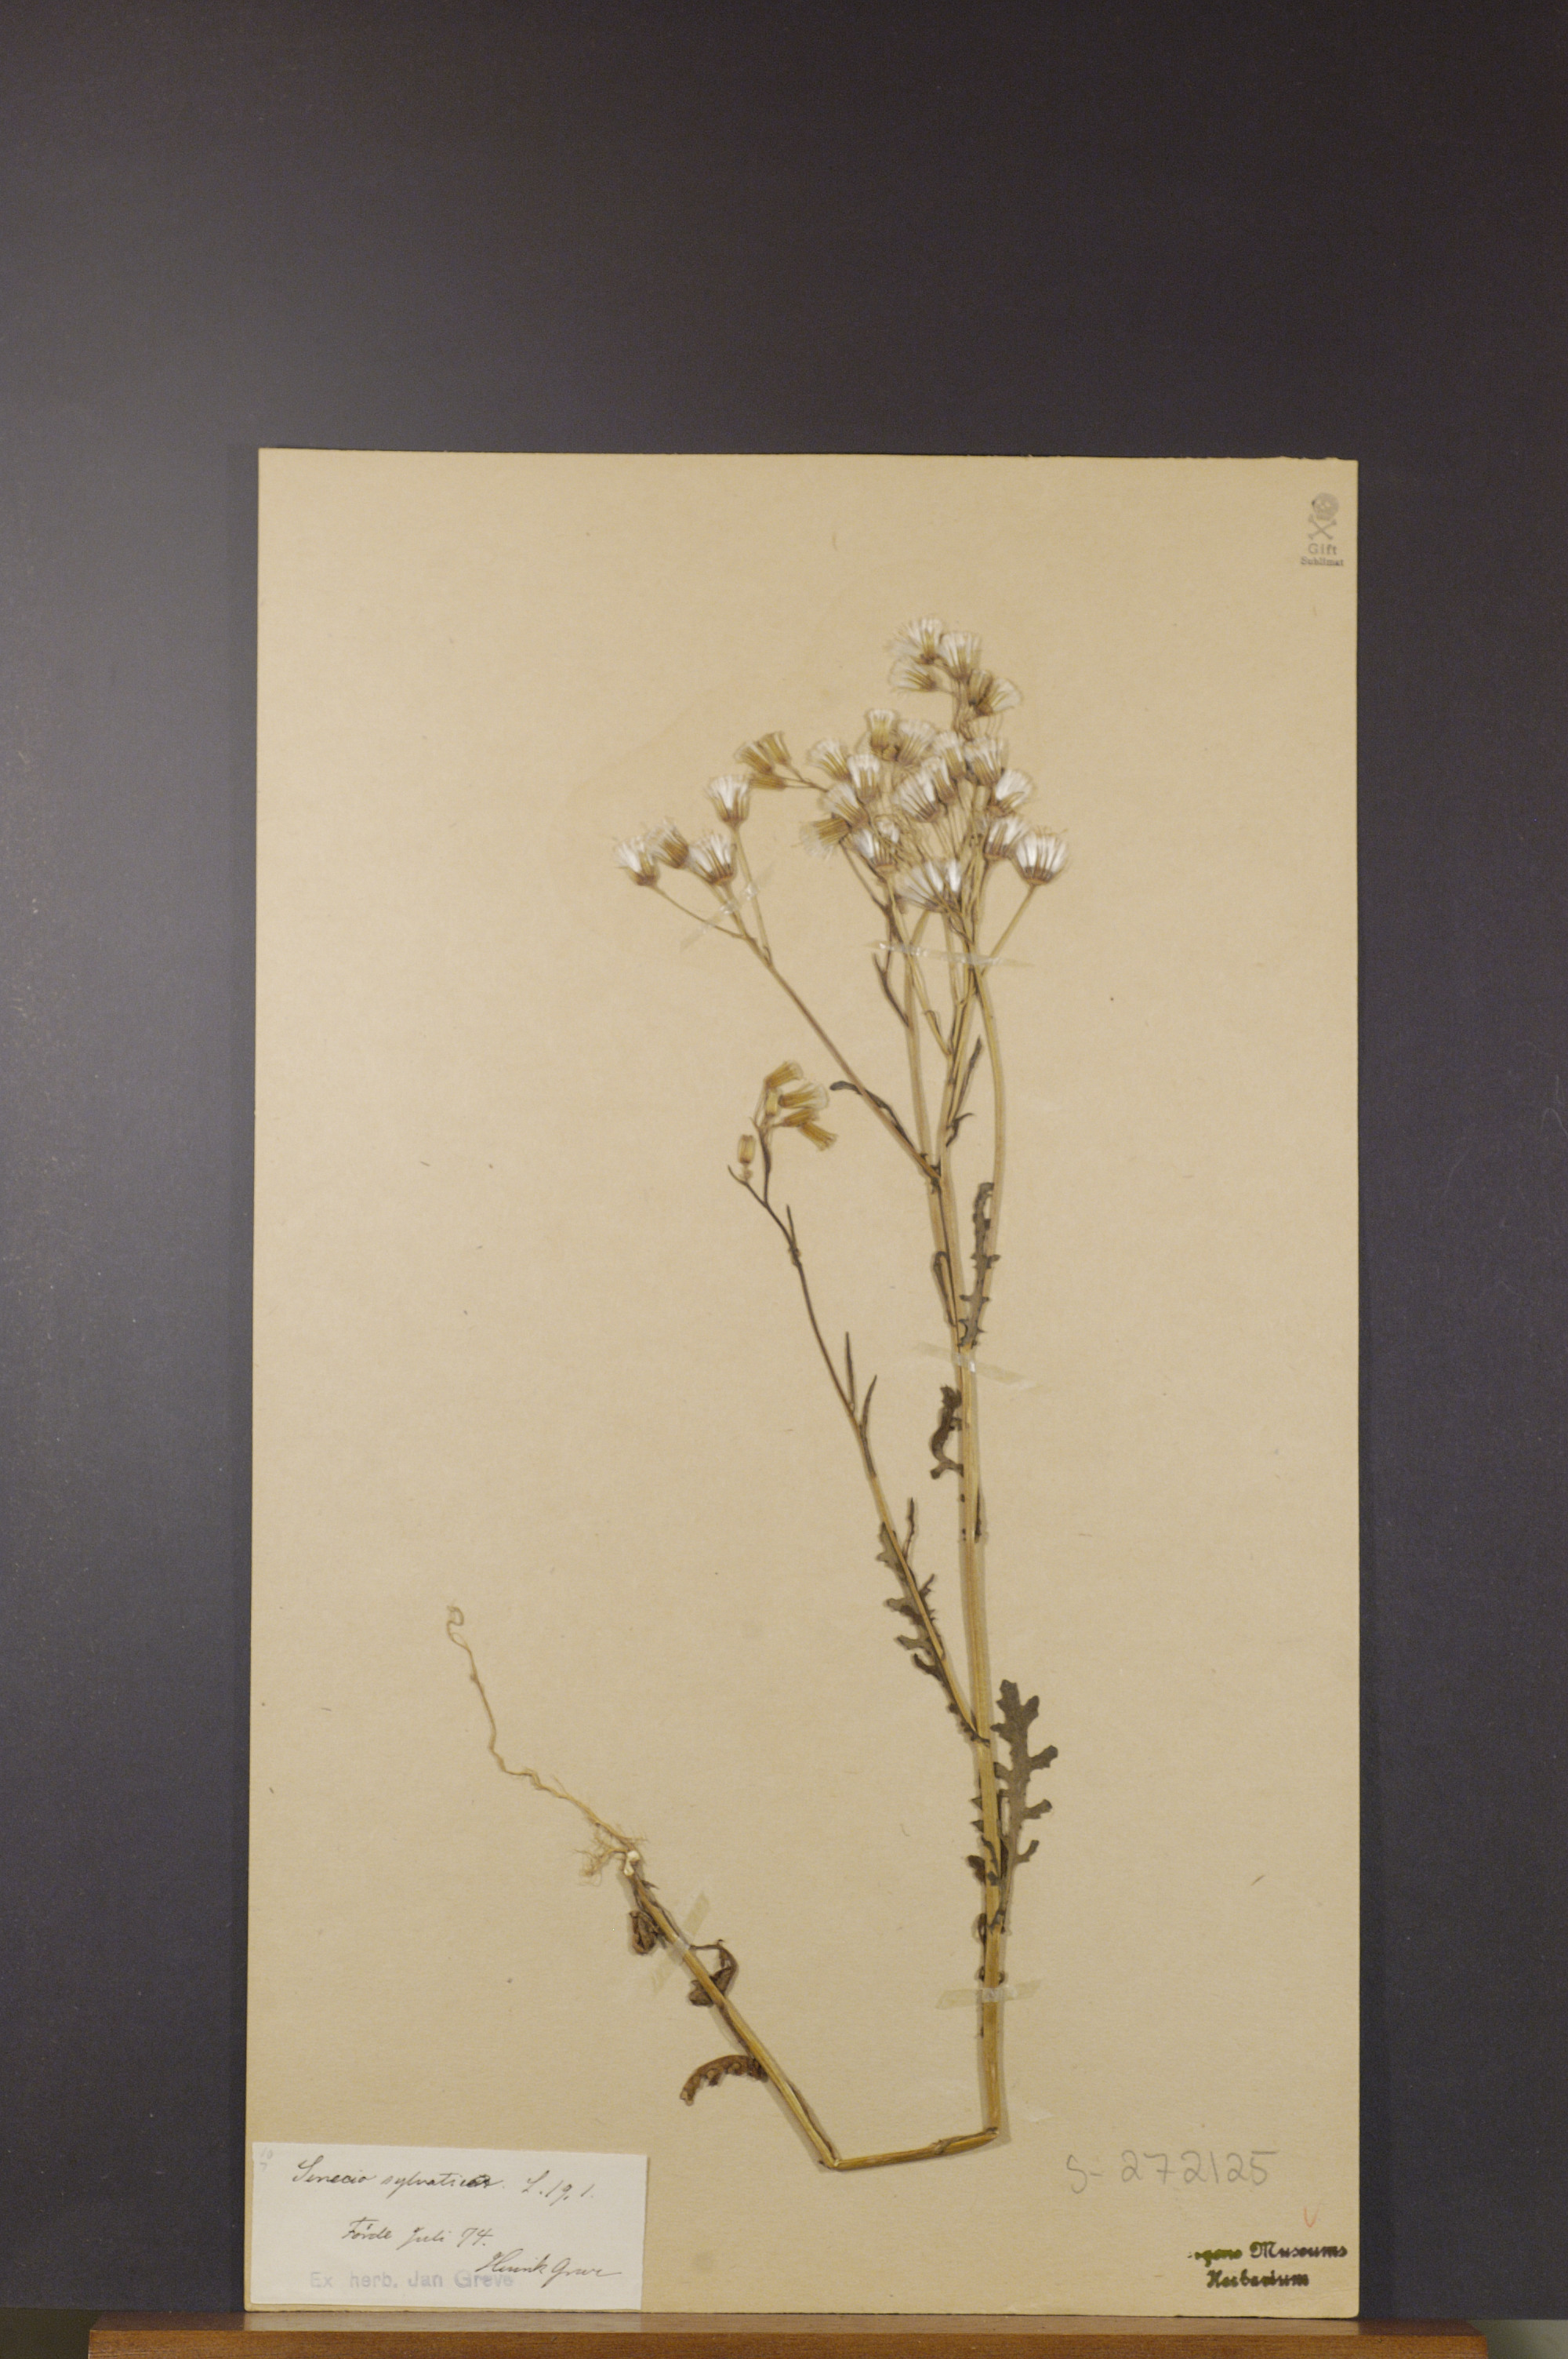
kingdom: Plantae
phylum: Tracheophyta
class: Magnoliopsida
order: Asterales
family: Asteraceae
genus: Senecio
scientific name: Senecio sylvaticus
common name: Woodland ragwort
